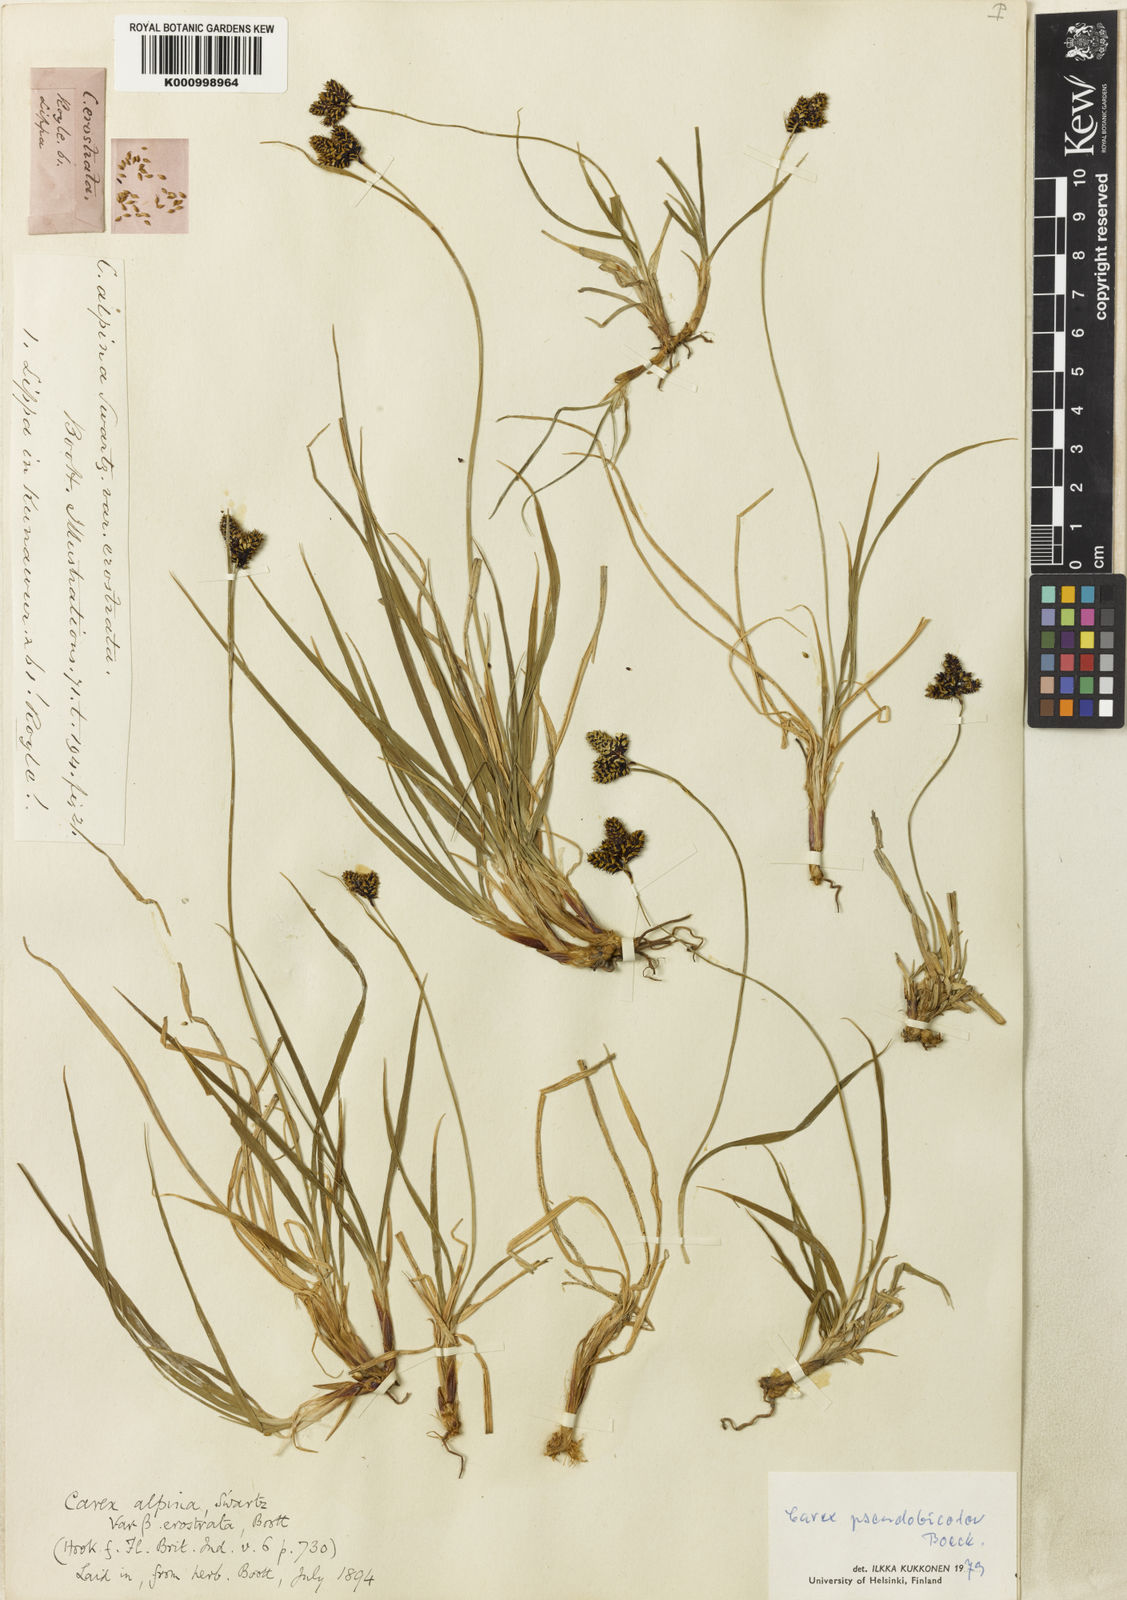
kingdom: Plantae
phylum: Tracheophyta
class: Liliopsida
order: Poales
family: Cyperaceae
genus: Carex
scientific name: Carex norvegica
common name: Close-headed alpine-sedge
